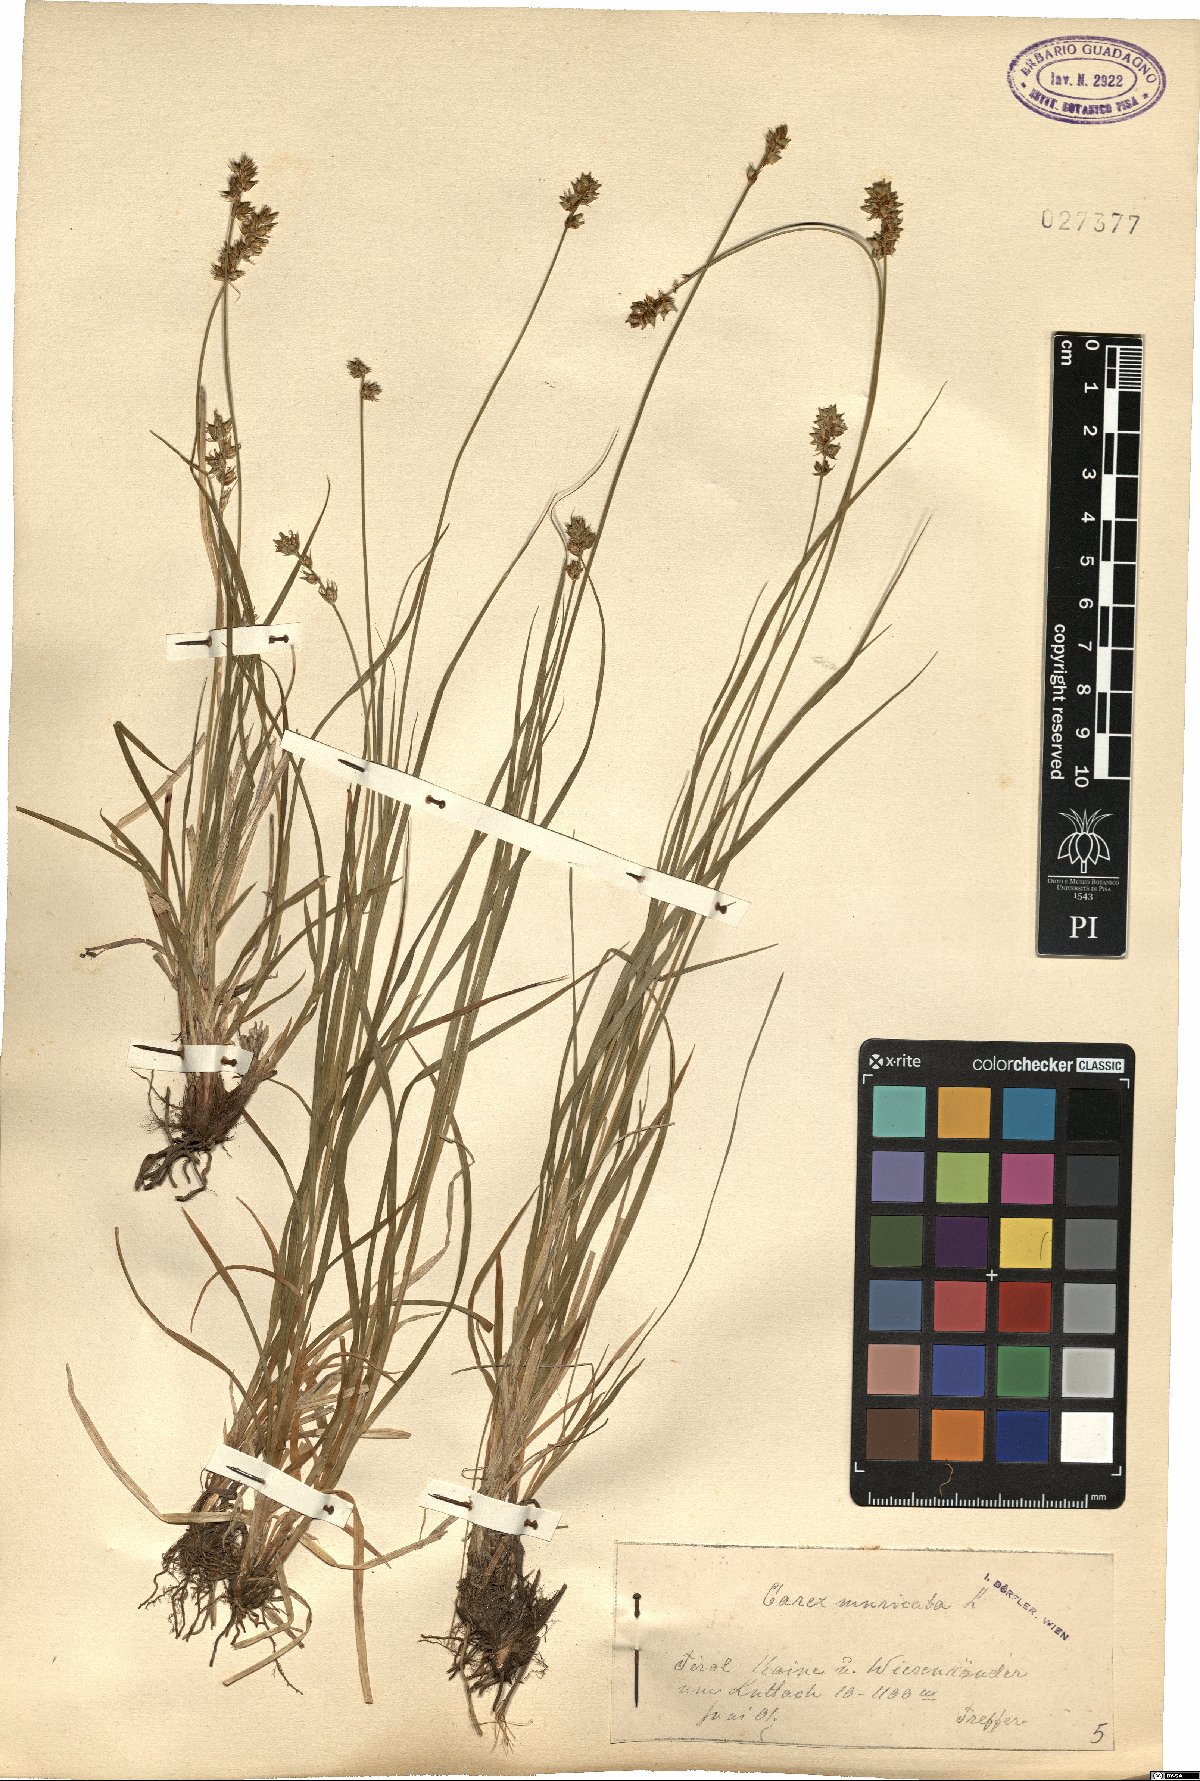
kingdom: Plantae
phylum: Tracheophyta
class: Liliopsida
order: Poales
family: Cyperaceae
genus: Carex
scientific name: Carex muricata
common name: Rough sedge
